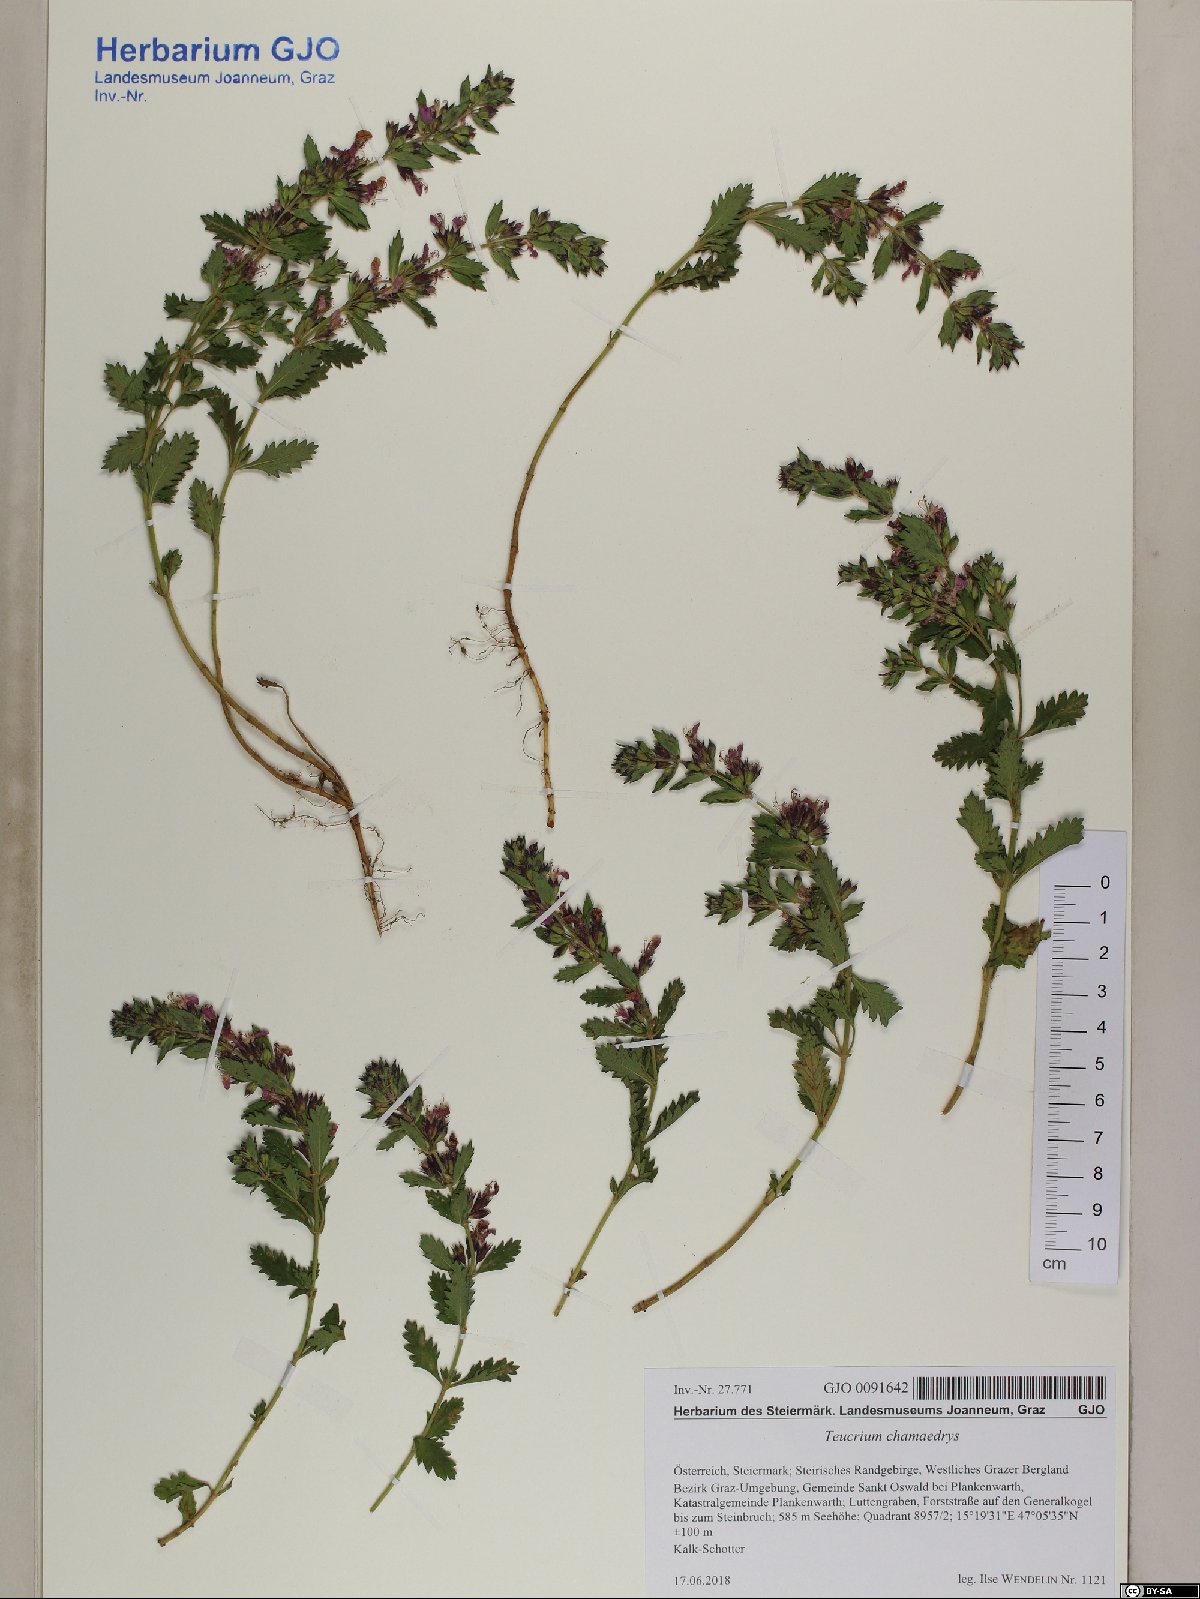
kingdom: Plantae
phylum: Tracheophyta
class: Magnoliopsida
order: Lamiales
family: Lamiaceae
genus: Teucrium
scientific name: Teucrium chamaedrys
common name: Wall germander
